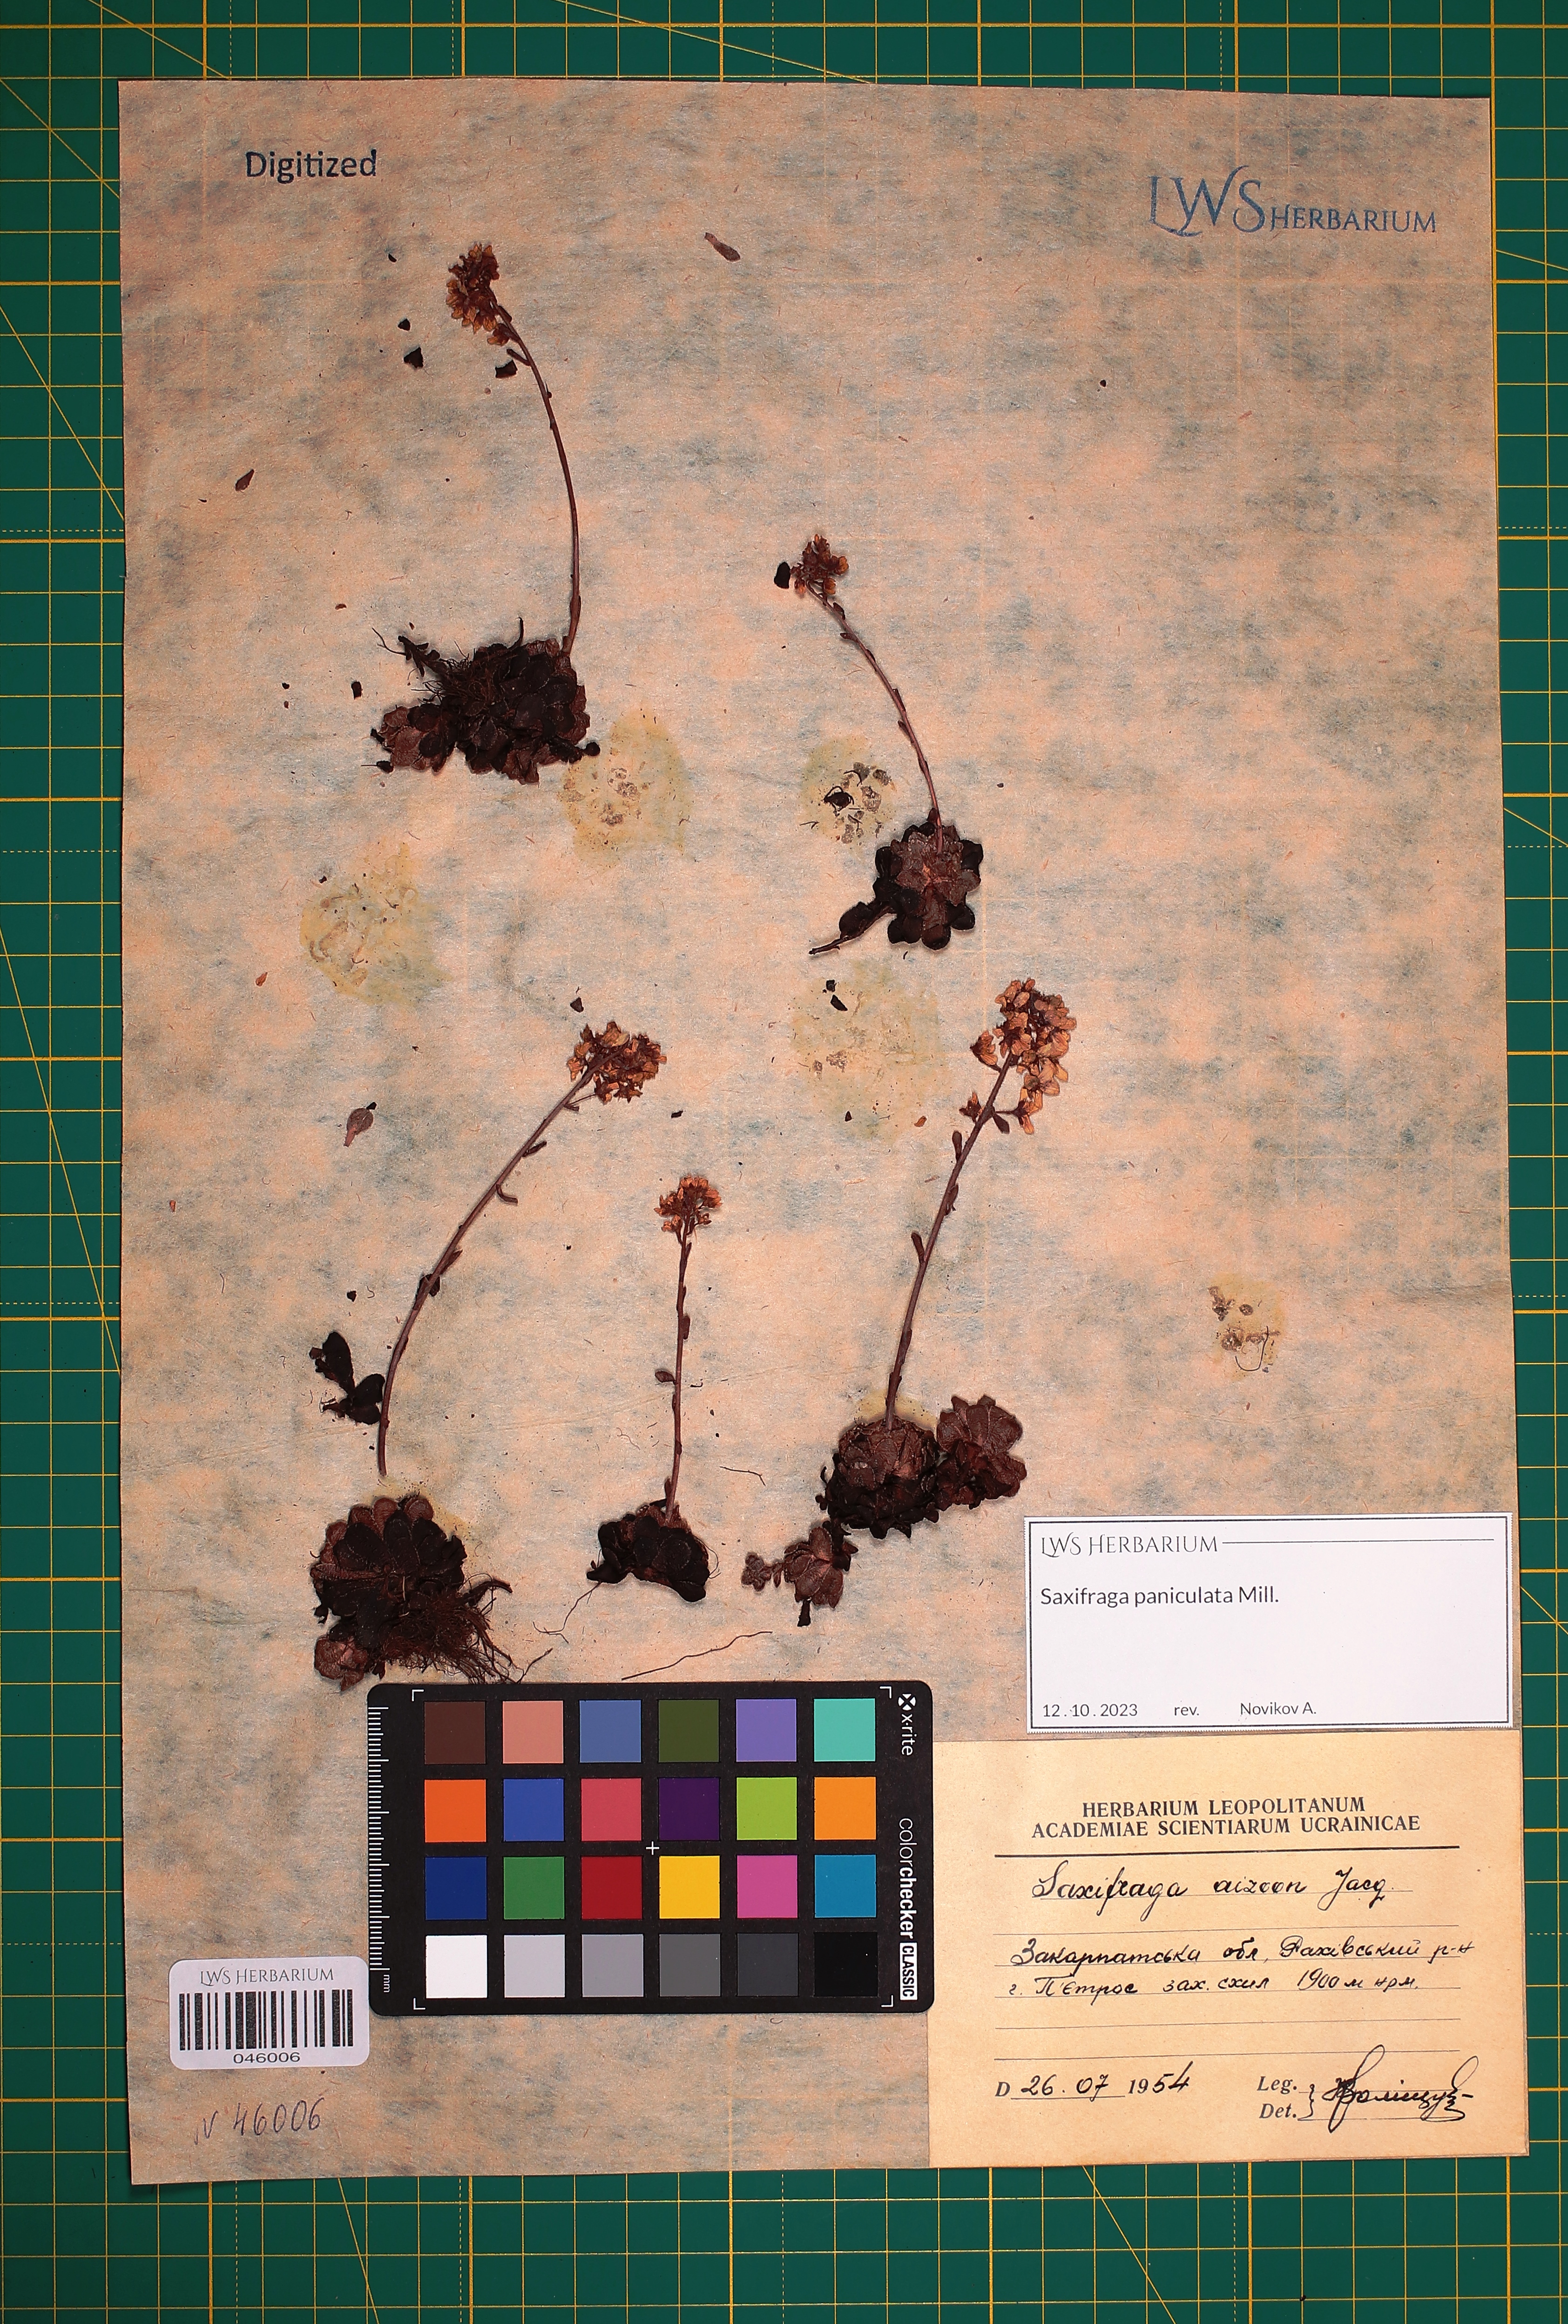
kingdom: Plantae
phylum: Tracheophyta
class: Magnoliopsida
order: Saxifragales
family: Saxifragaceae
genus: Saxifraga
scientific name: Saxifraga paniculata
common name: Livelong saxifrage
